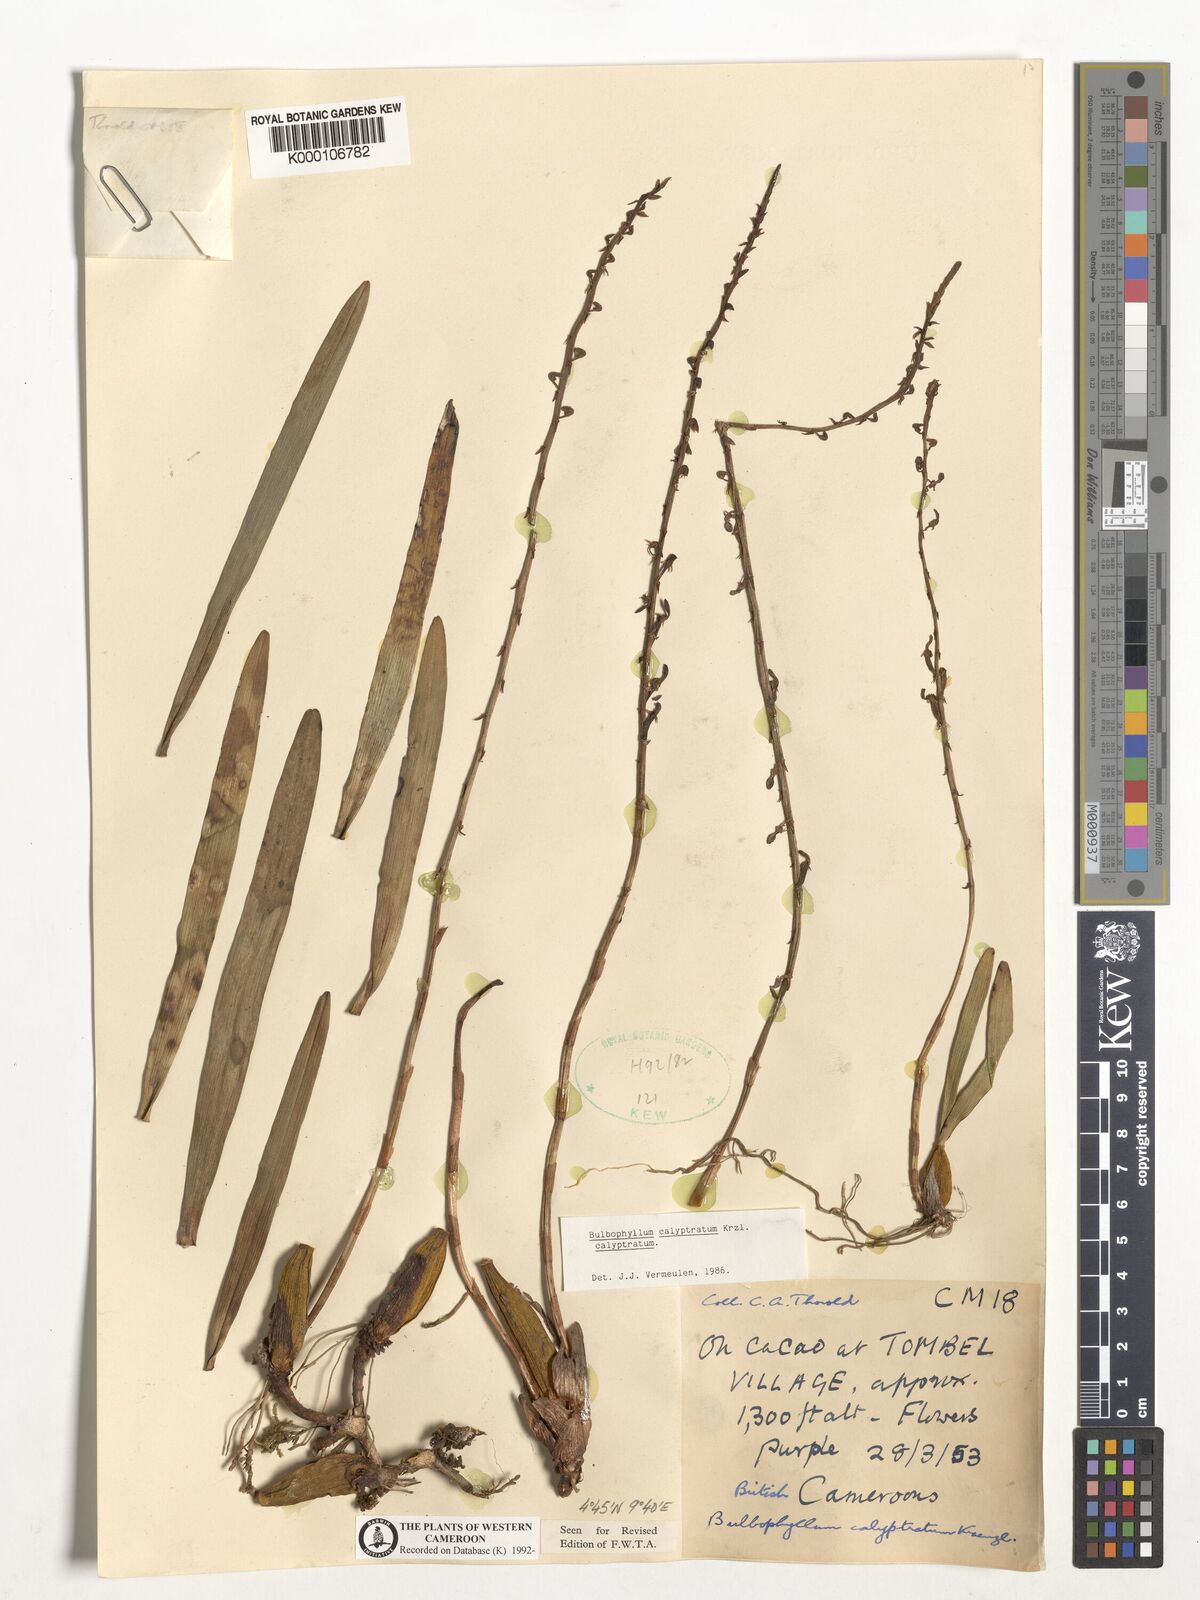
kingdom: Plantae
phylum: Tracheophyta
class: Liliopsida
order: Asparagales
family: Orchidaceae
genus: Bulbophyllum
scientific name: Bulbophyllum calyptratum
